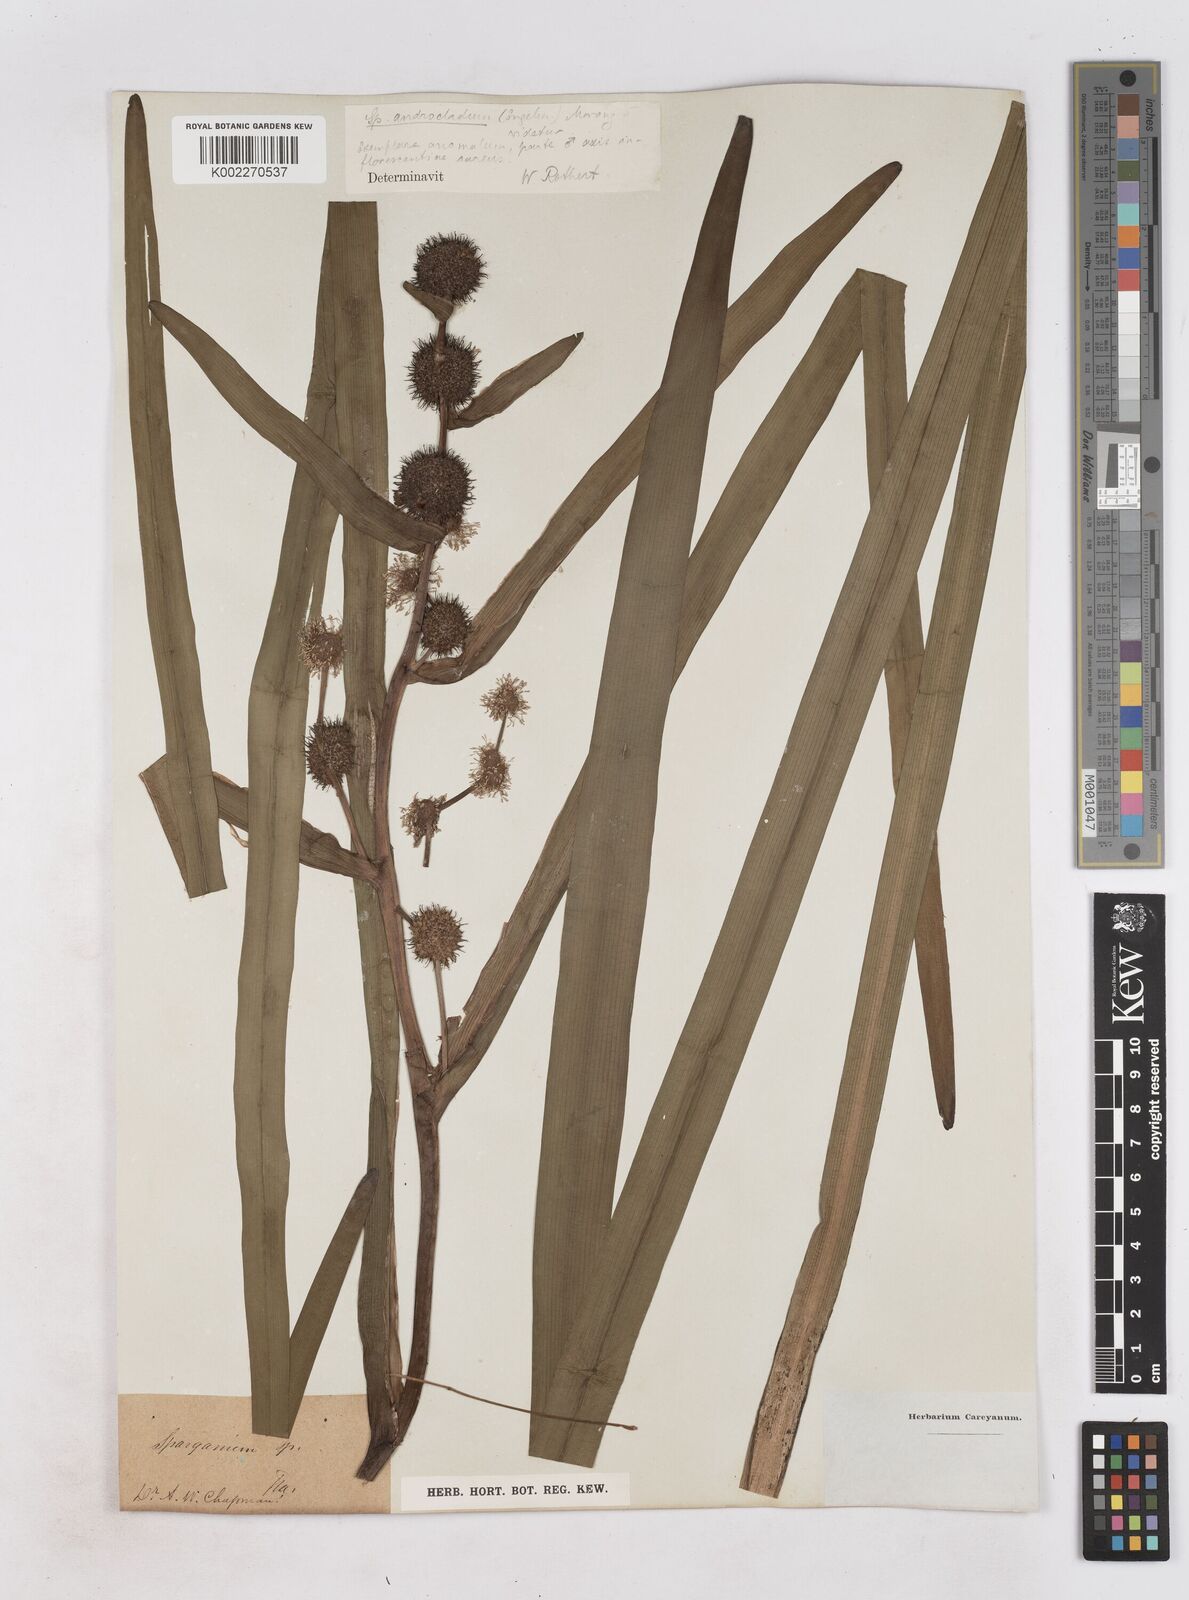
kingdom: Plantae
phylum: Tracheophyta
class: Liliopsida
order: Poales
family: Typhaceae
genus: Sparganium
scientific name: Sparganium androcladum
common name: Branched burreed
